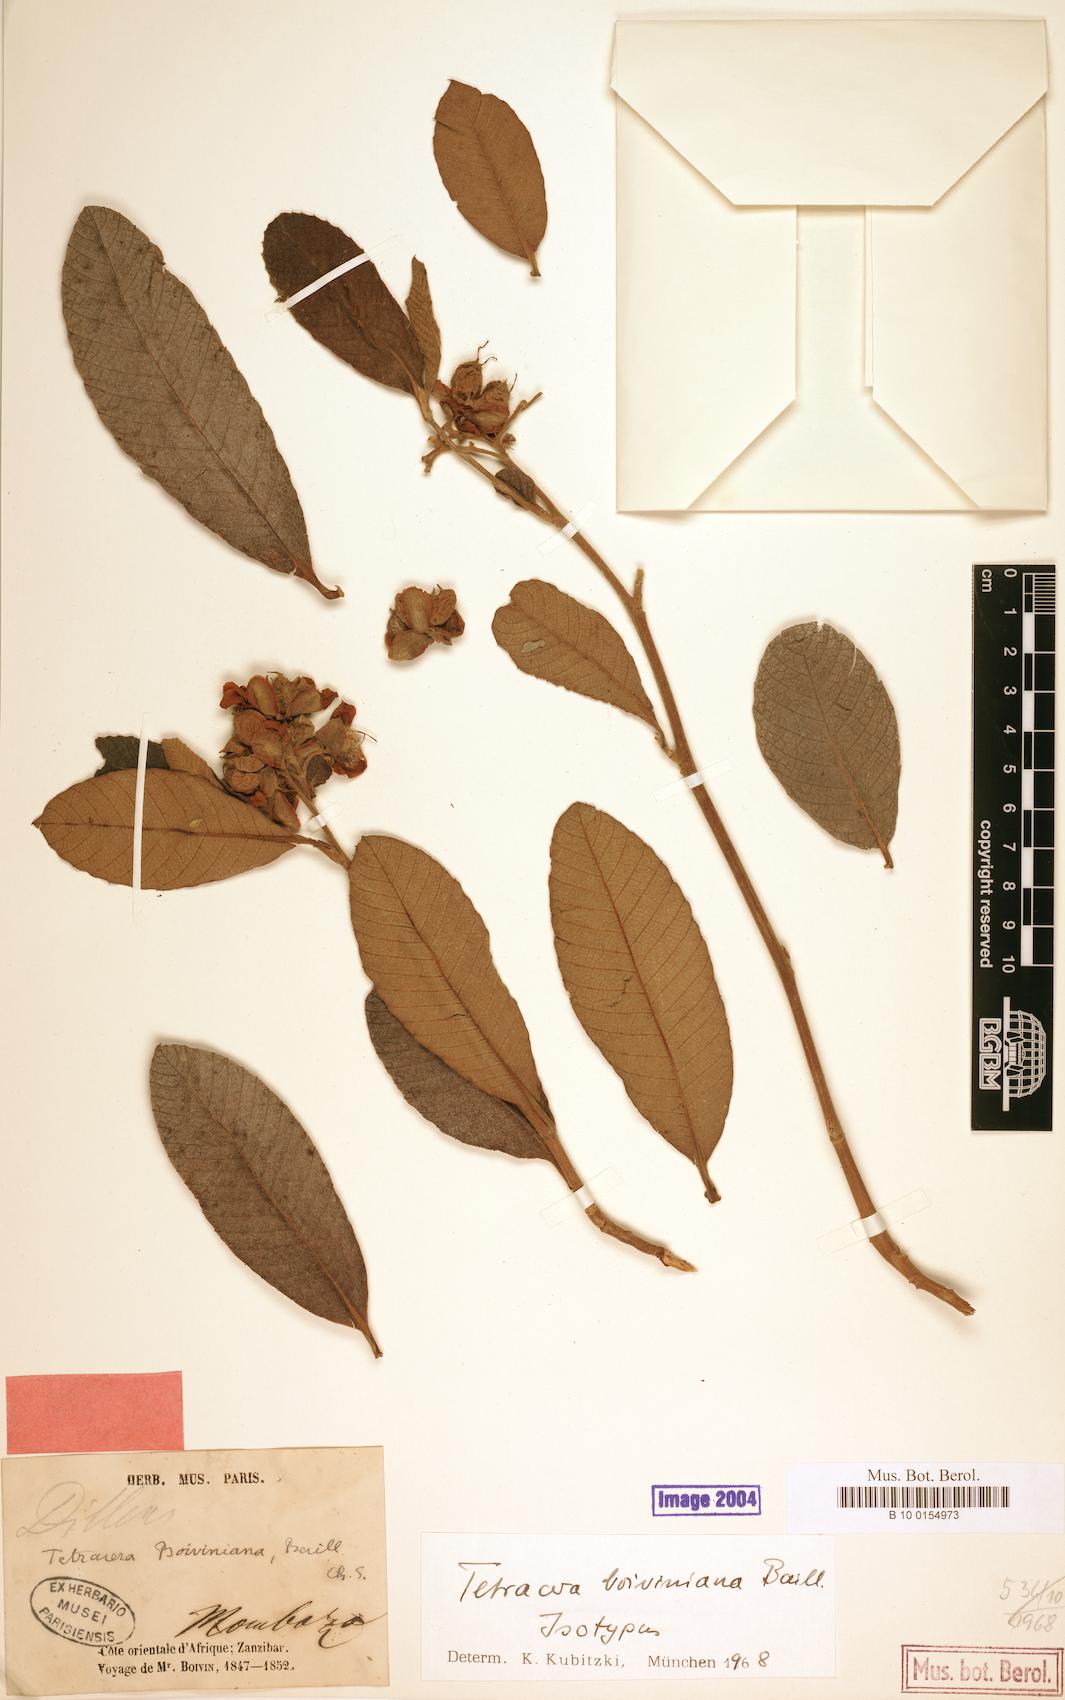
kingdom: Plantae
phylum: Tracheophyta
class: Magnoliopsida
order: Dilleniales
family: Dilleniaceae
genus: Tetracera
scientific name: Tetracera boiviniana
